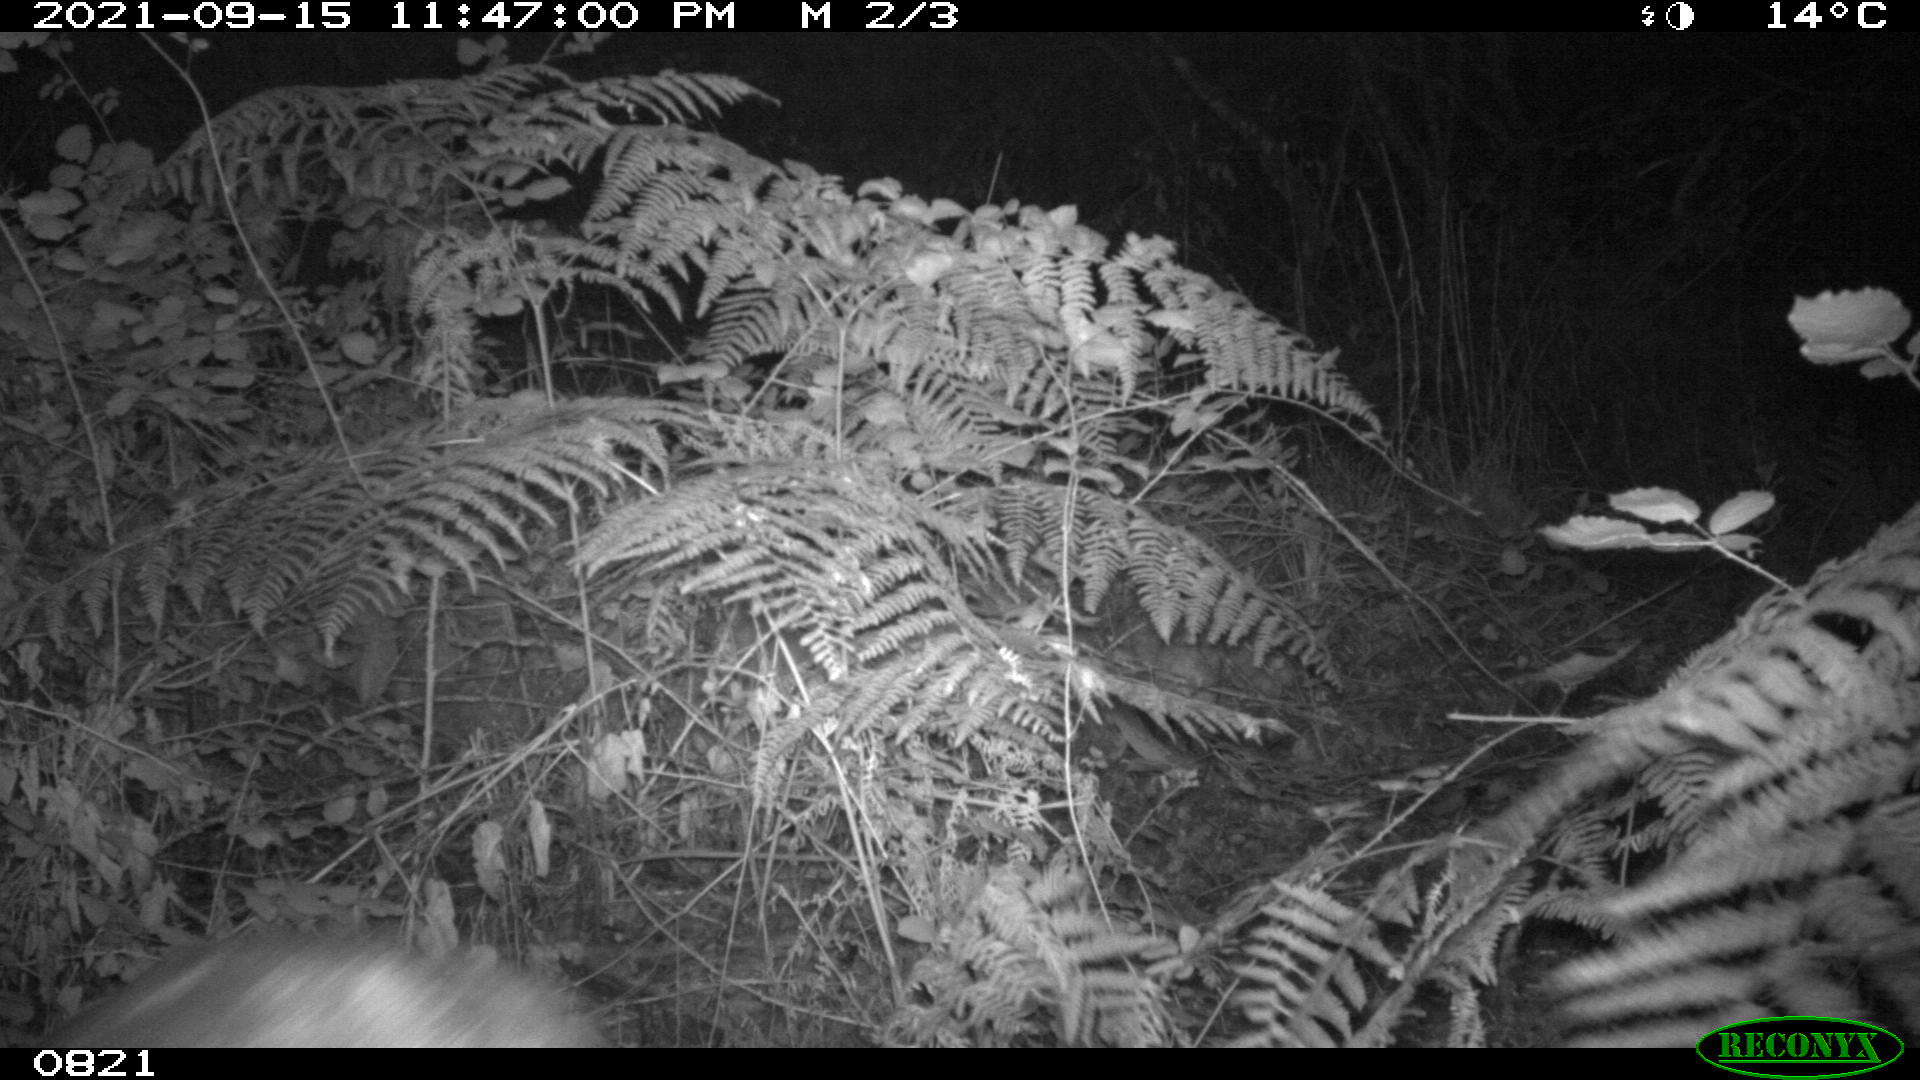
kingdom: Animalia
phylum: Chordata
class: Mammalia
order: Artiodactyla
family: Cervidae
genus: Capreolus
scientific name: Capreolus capreolus
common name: Western roe deer
